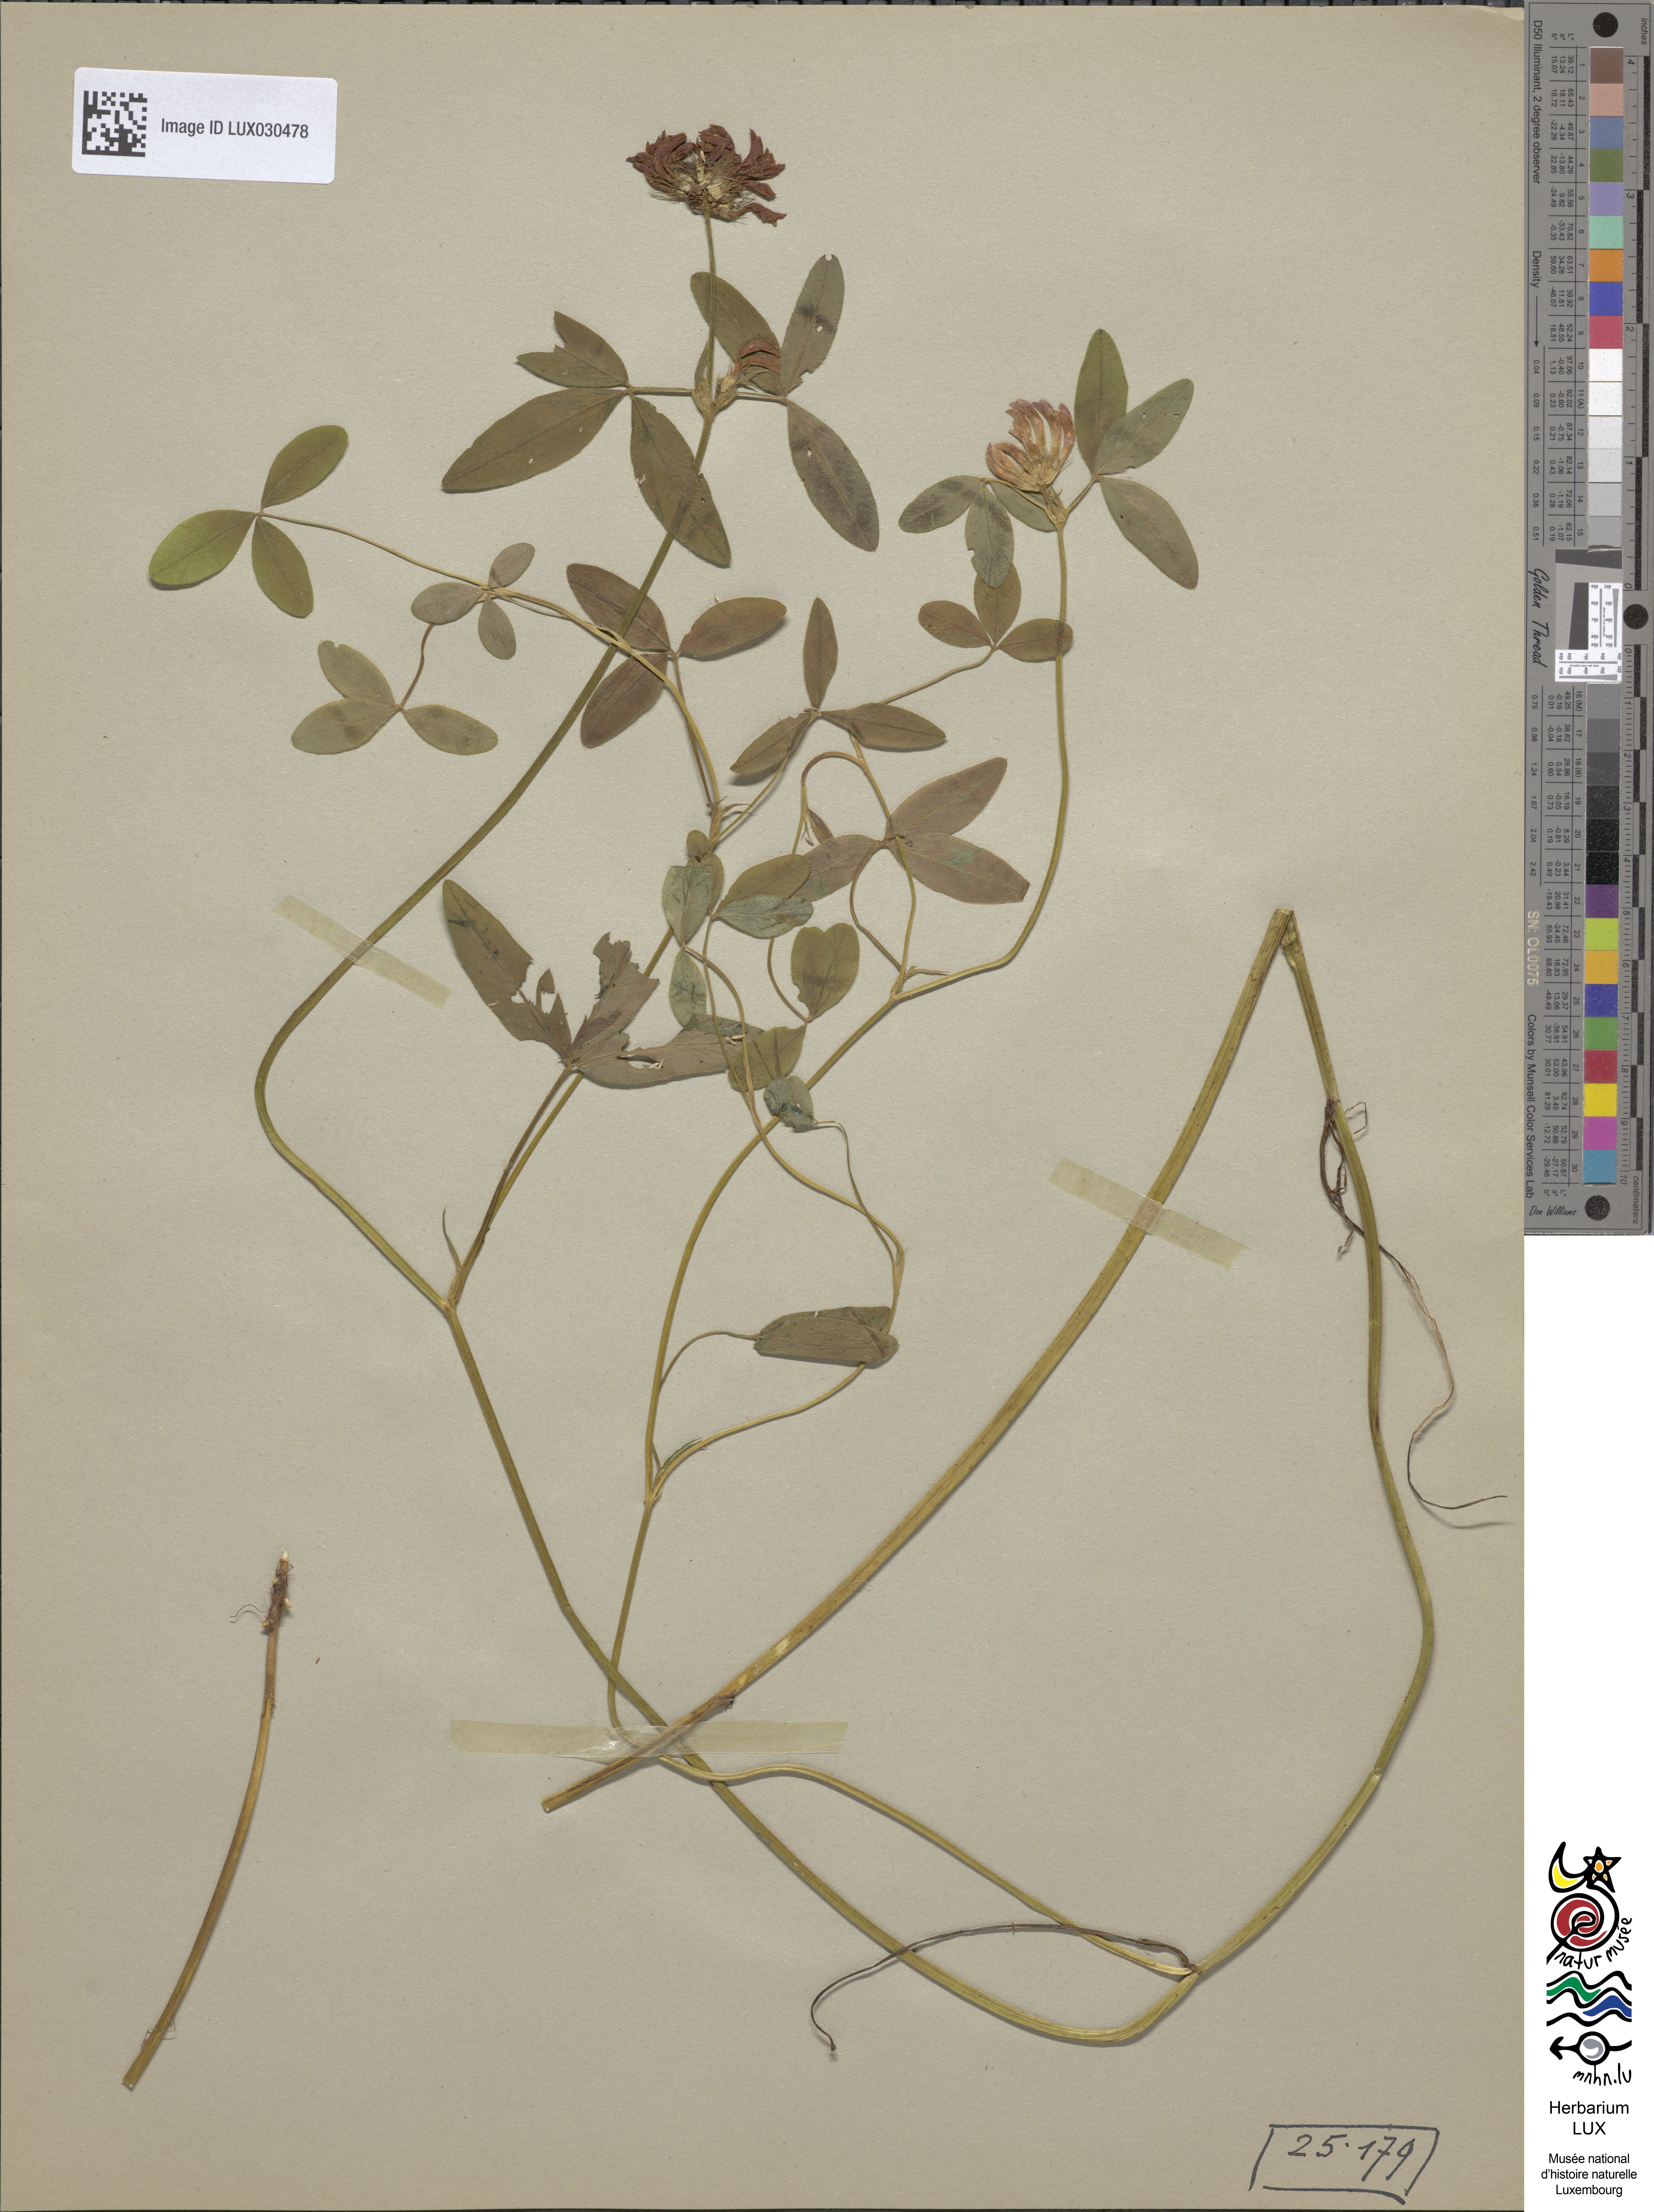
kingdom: Plantae
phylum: Tracheophyta
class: Magnoliopsida
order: Fabales
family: Fabaceae
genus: Trifolium
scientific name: Trifolium medium
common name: Zigzag clover
